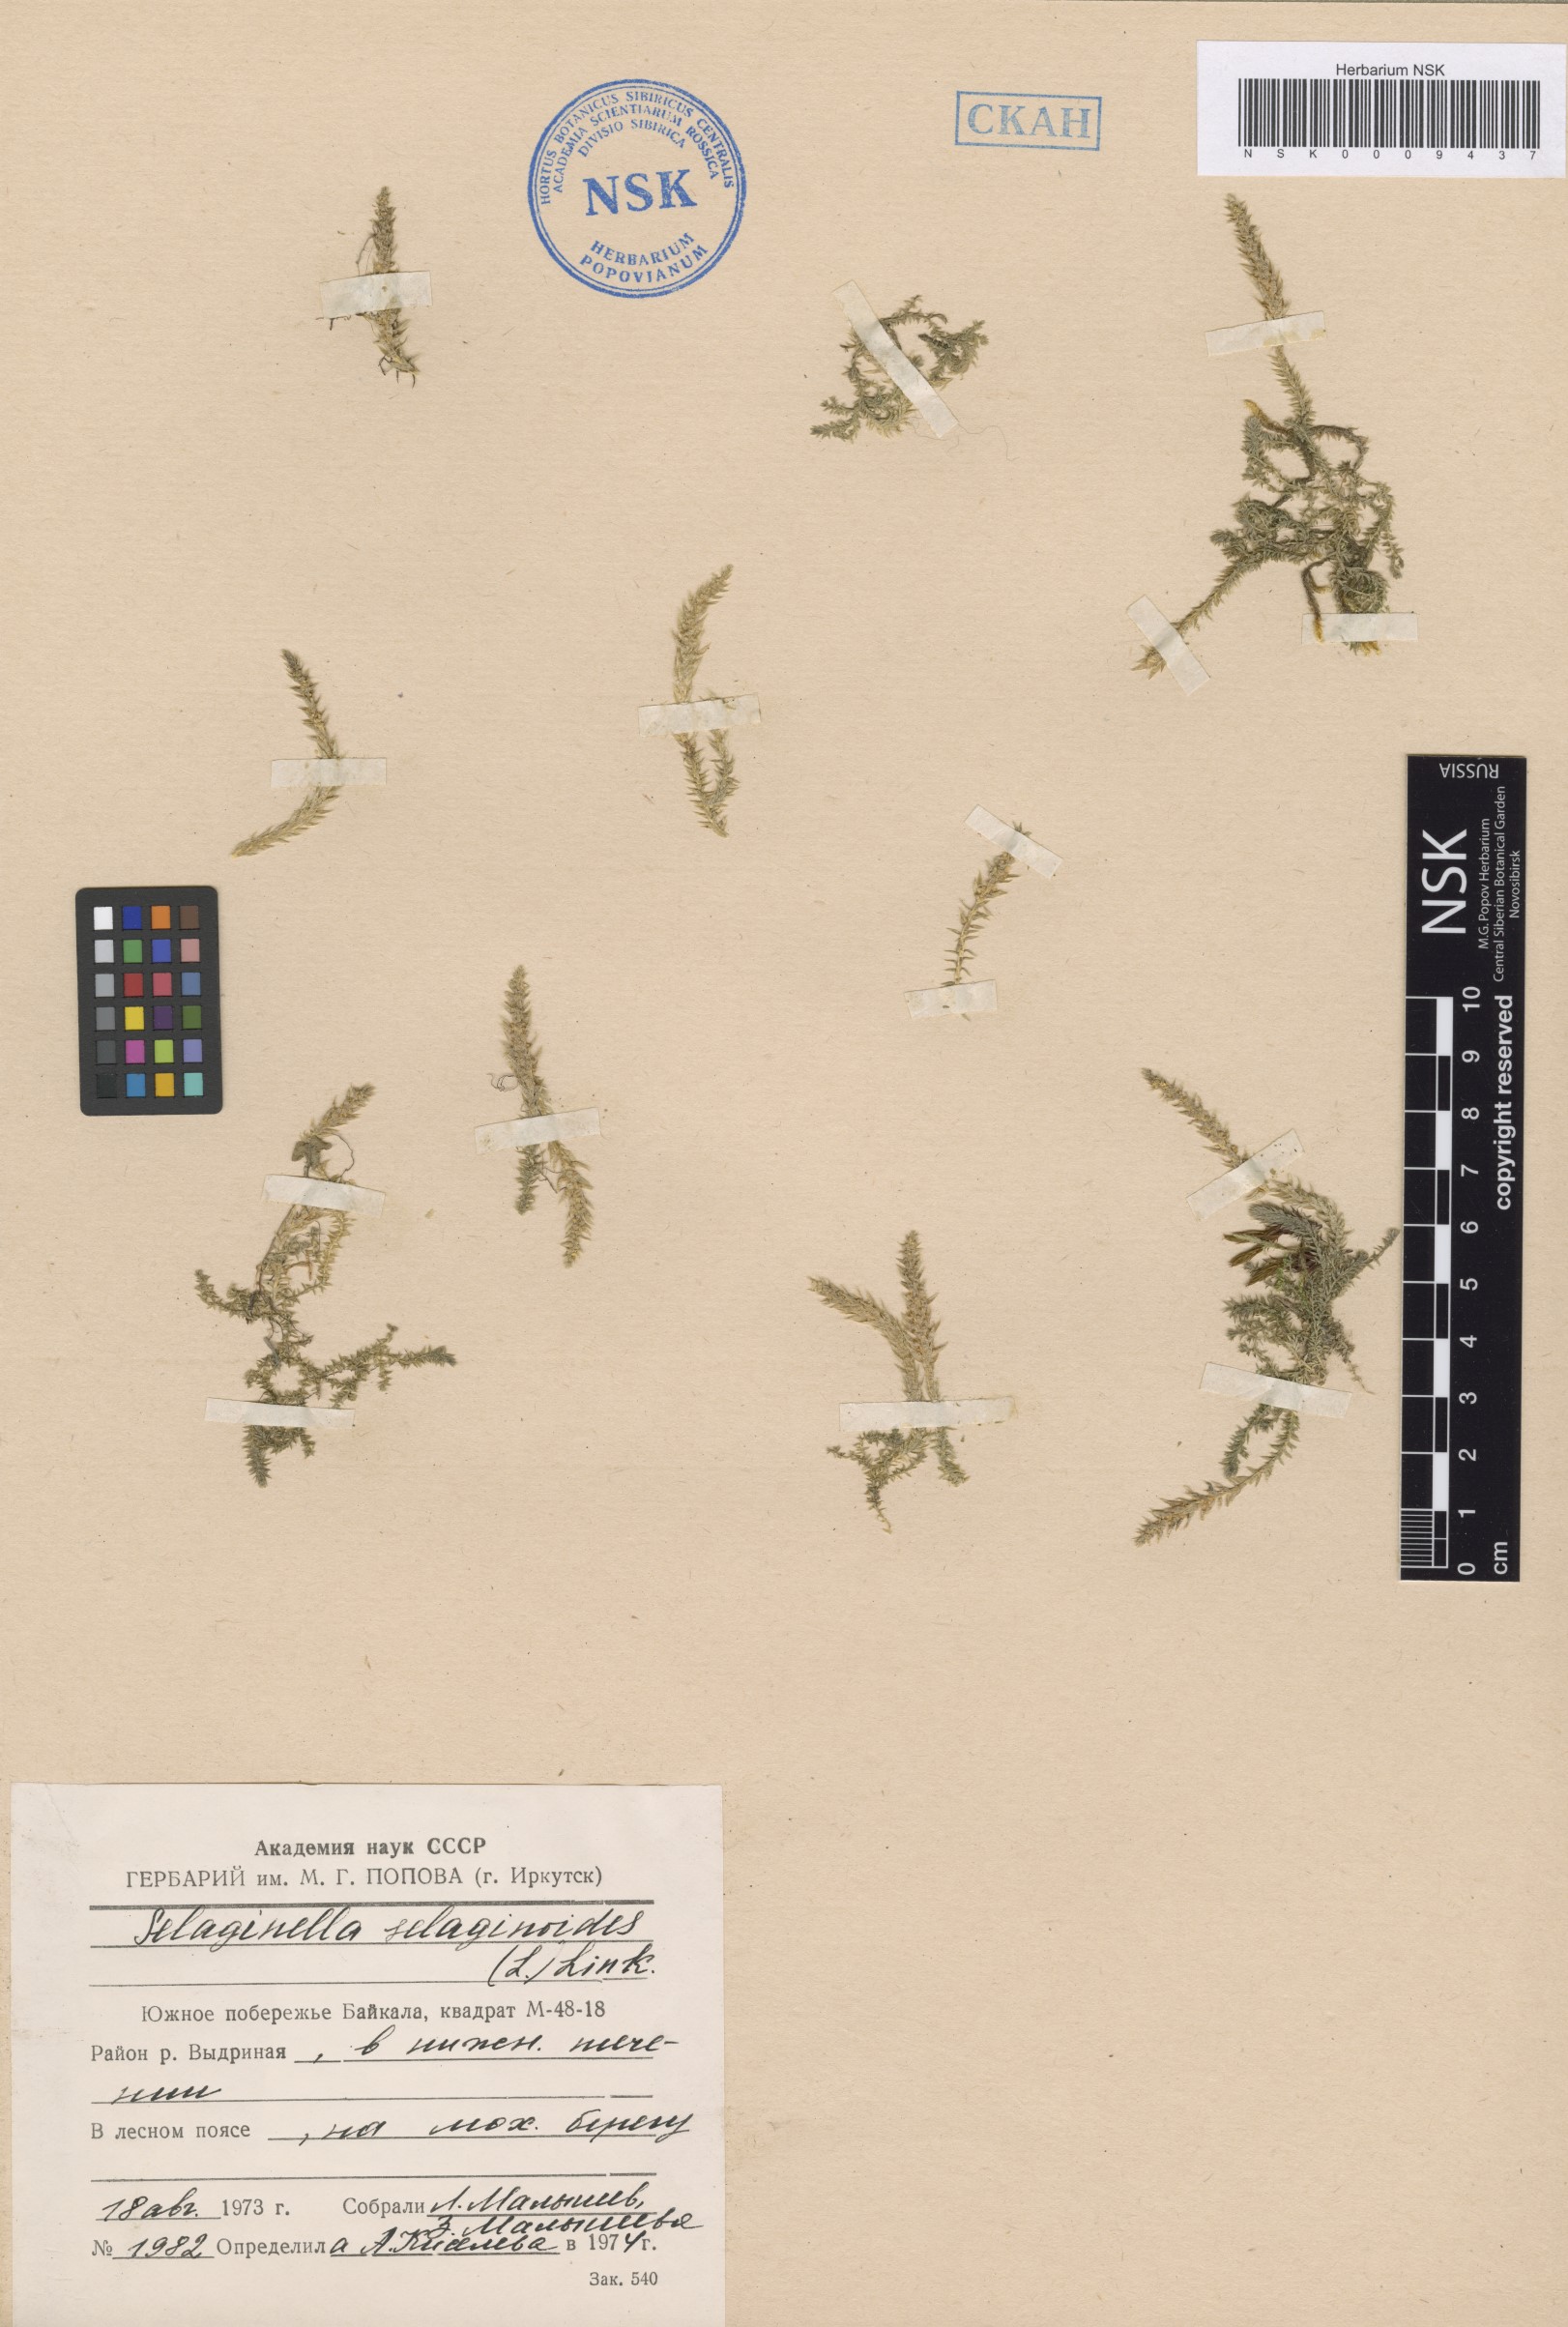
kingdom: Plantae
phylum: Tracheophyta
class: Lycopodiopsida
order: Selaginellales
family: Selaginellaceae
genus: Selaginella
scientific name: Selaginella selaginoides
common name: Prickly mountain-moss
